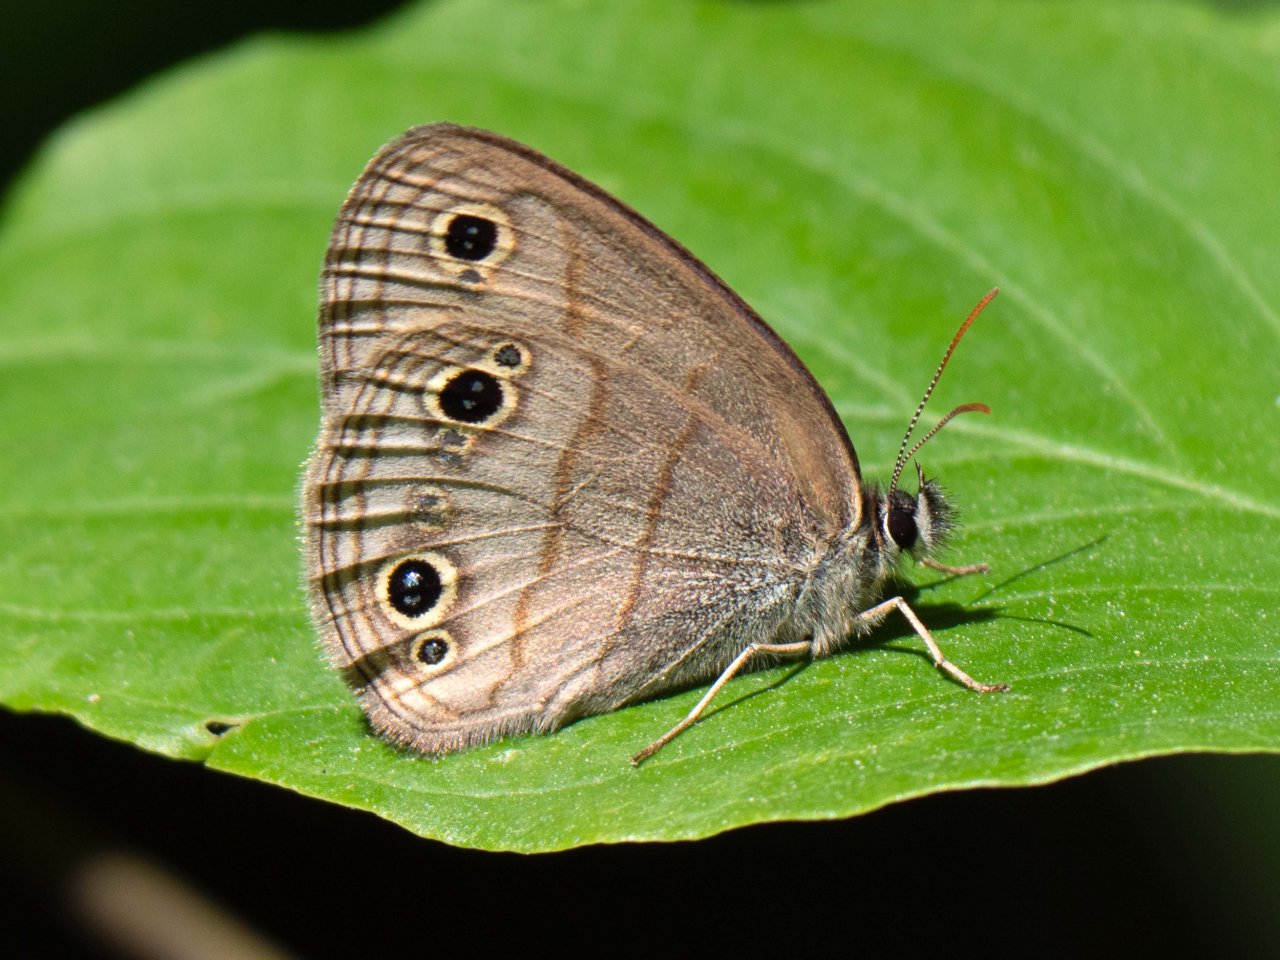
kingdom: Animalia
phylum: Arthropoda
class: Insecta
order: Lepidoptera
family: Nymphalidae
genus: Euptychia
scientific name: Euptychia cymela
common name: Little Wood Satyr
